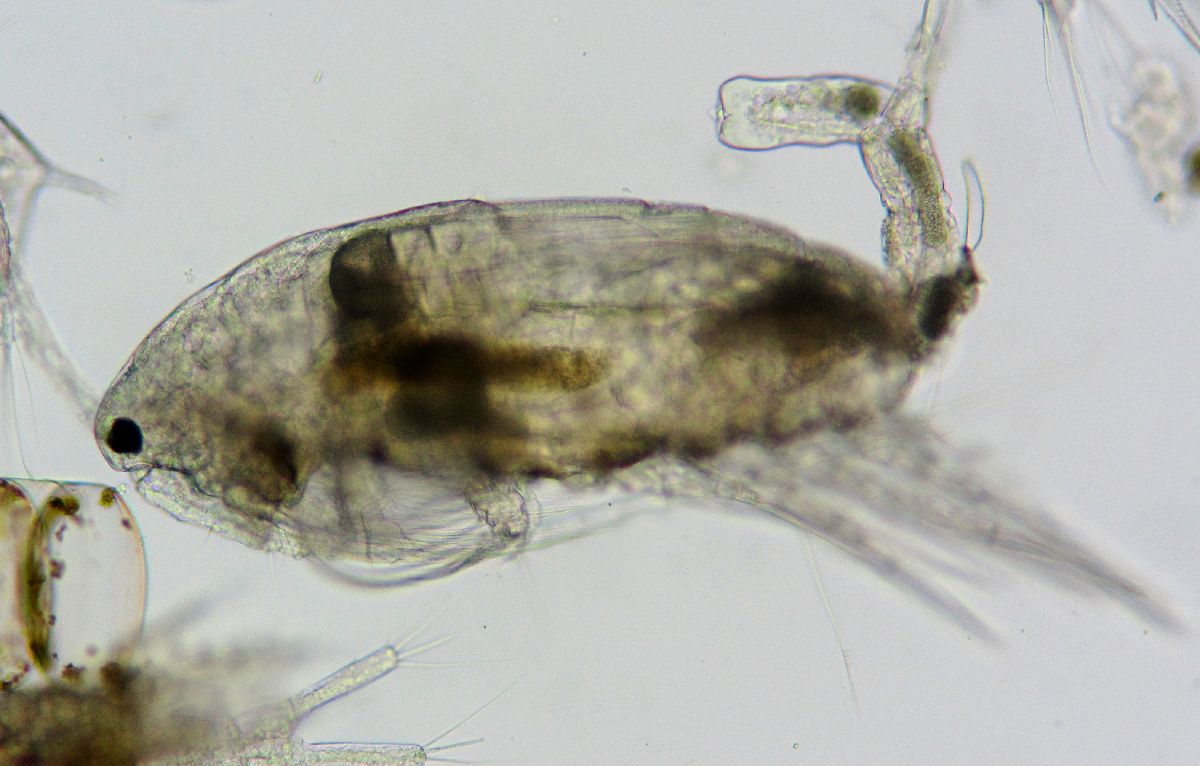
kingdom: Animalia
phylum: Arthropoda
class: Copepoda
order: Calanoida
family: Acartiidae
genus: Acartia
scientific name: Acartia
